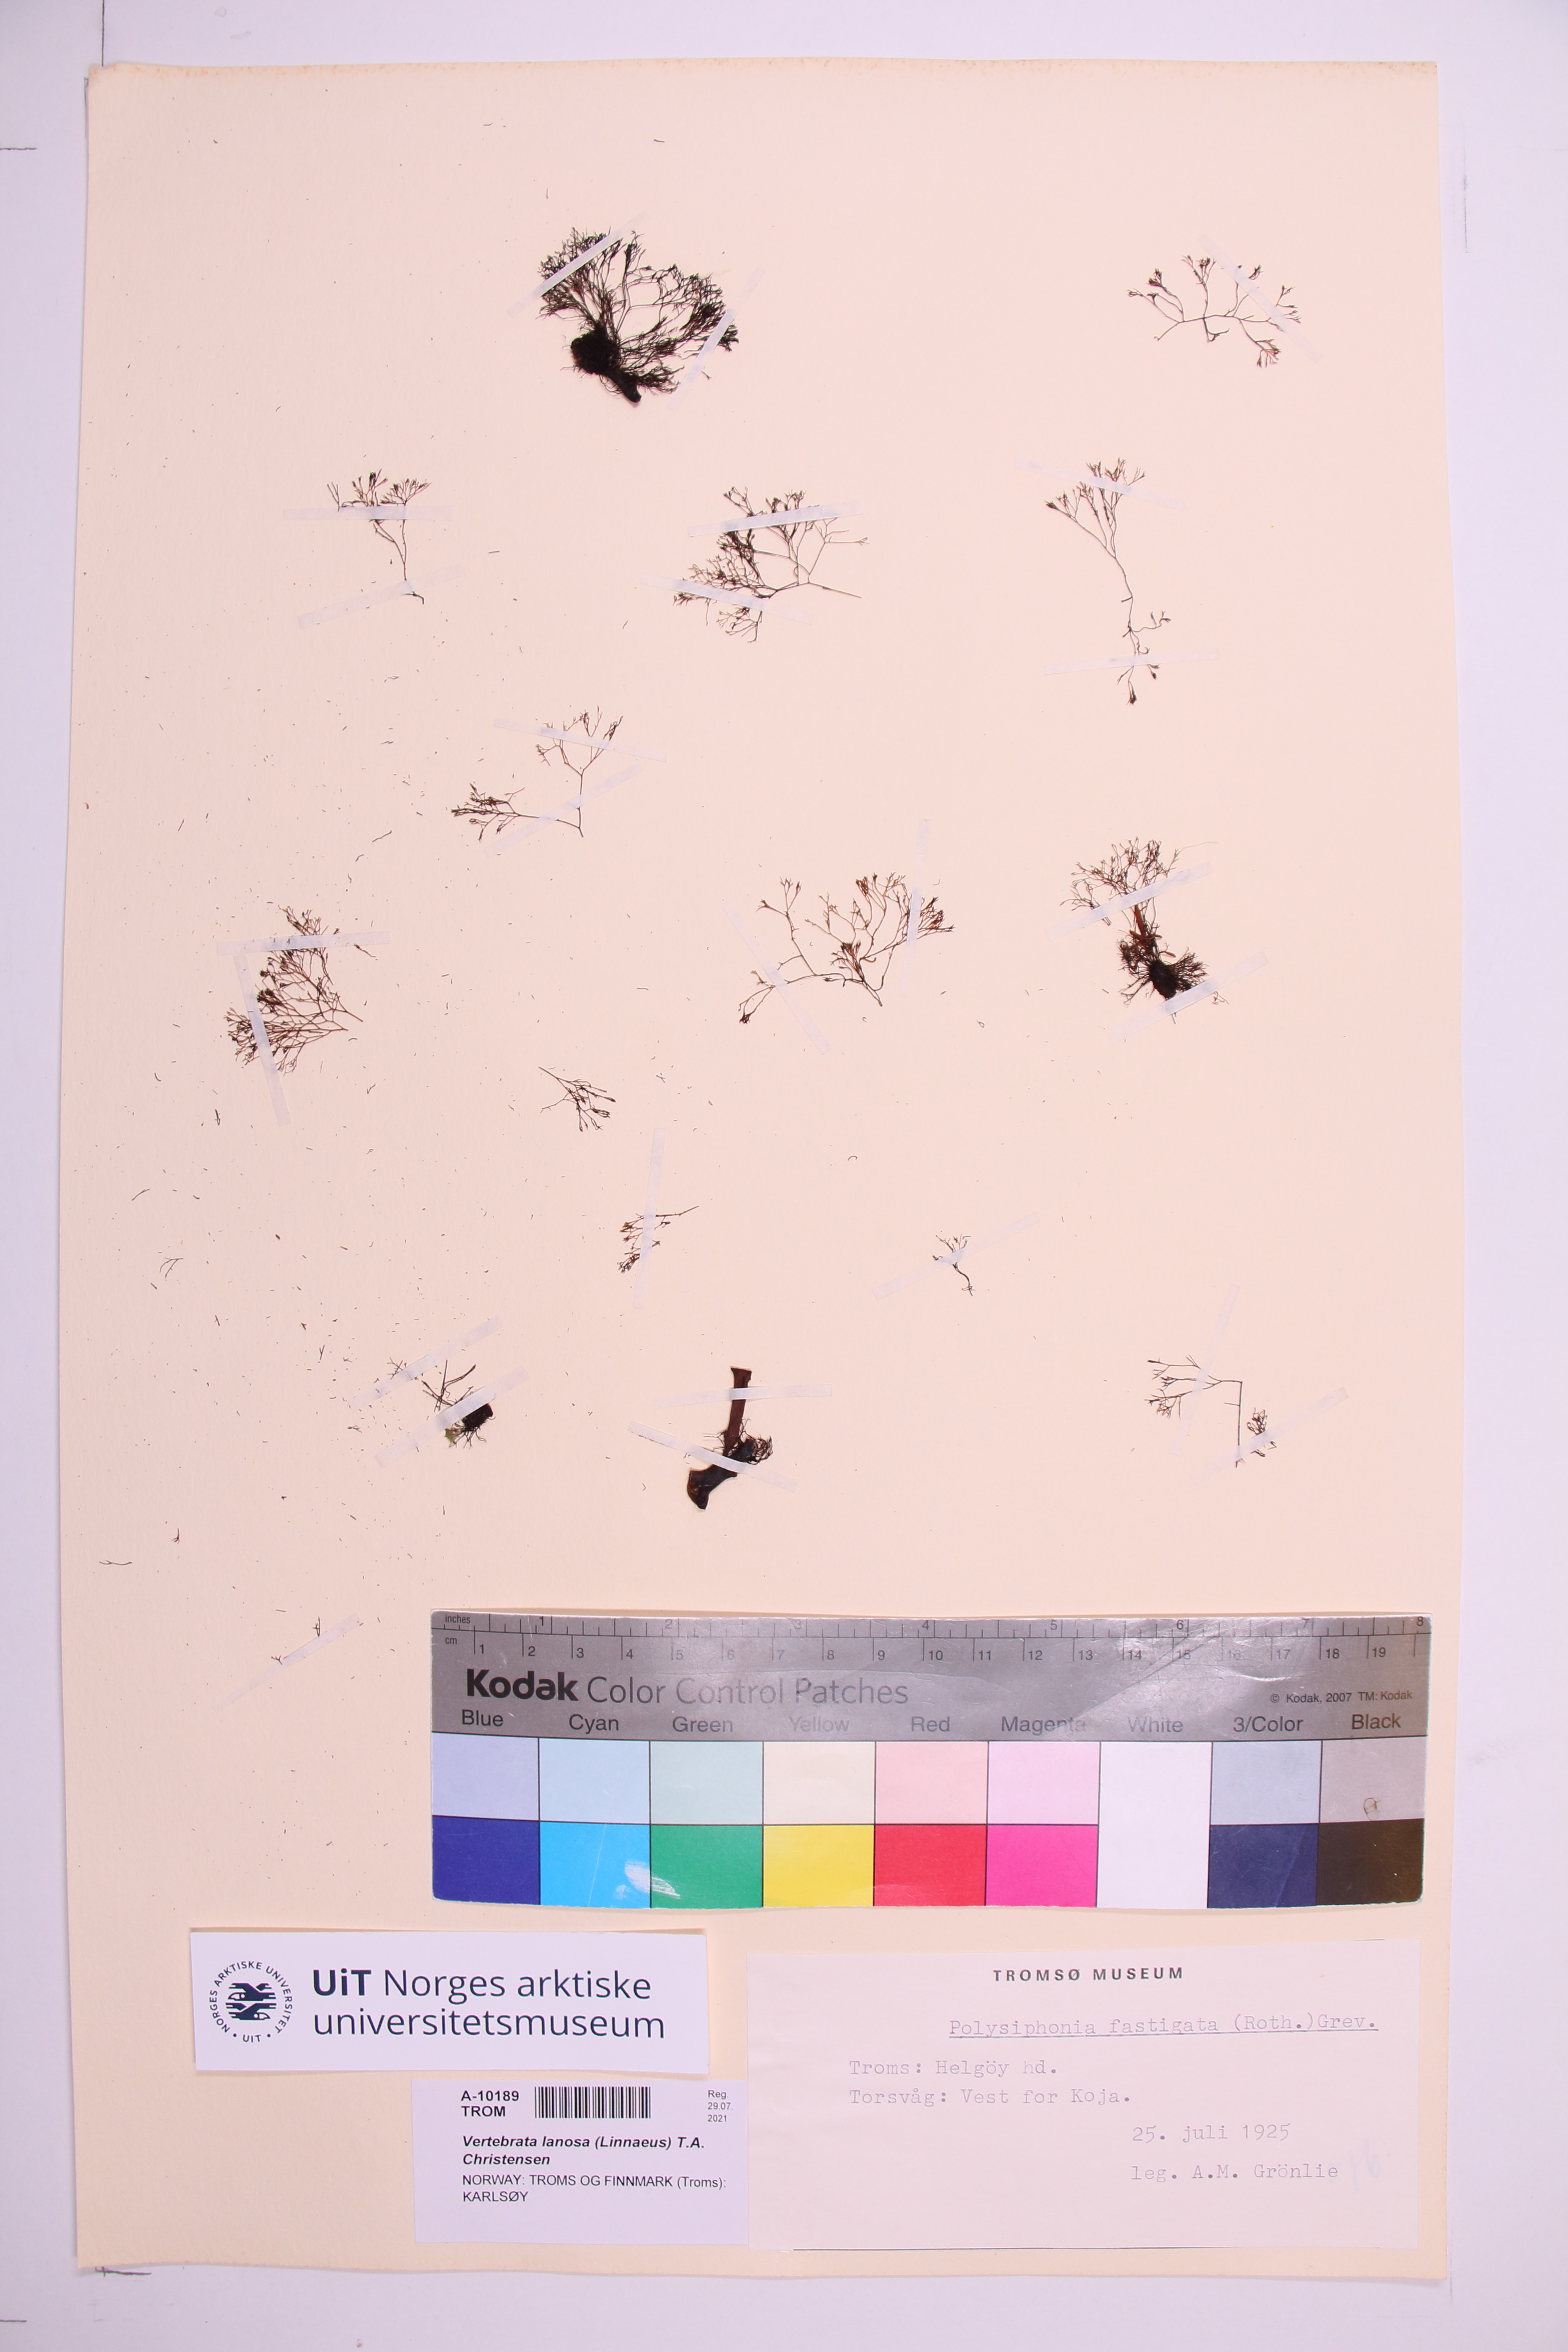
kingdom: Plantae
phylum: Rhodophyta
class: Florideophyceae
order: Ceramiales
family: Rhodomelaceae
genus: Vertebrata
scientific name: Vertebrata lanosa
